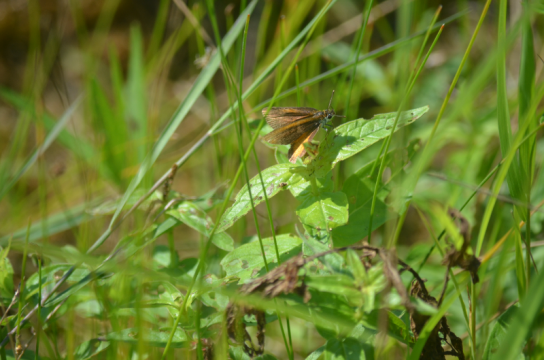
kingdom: Animalia
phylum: Arthropoda
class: Insecta
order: Lepidoptera
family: Hesperiidae
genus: Ancyloxypha
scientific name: Ancyloxypha numitor
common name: Least Skipper
